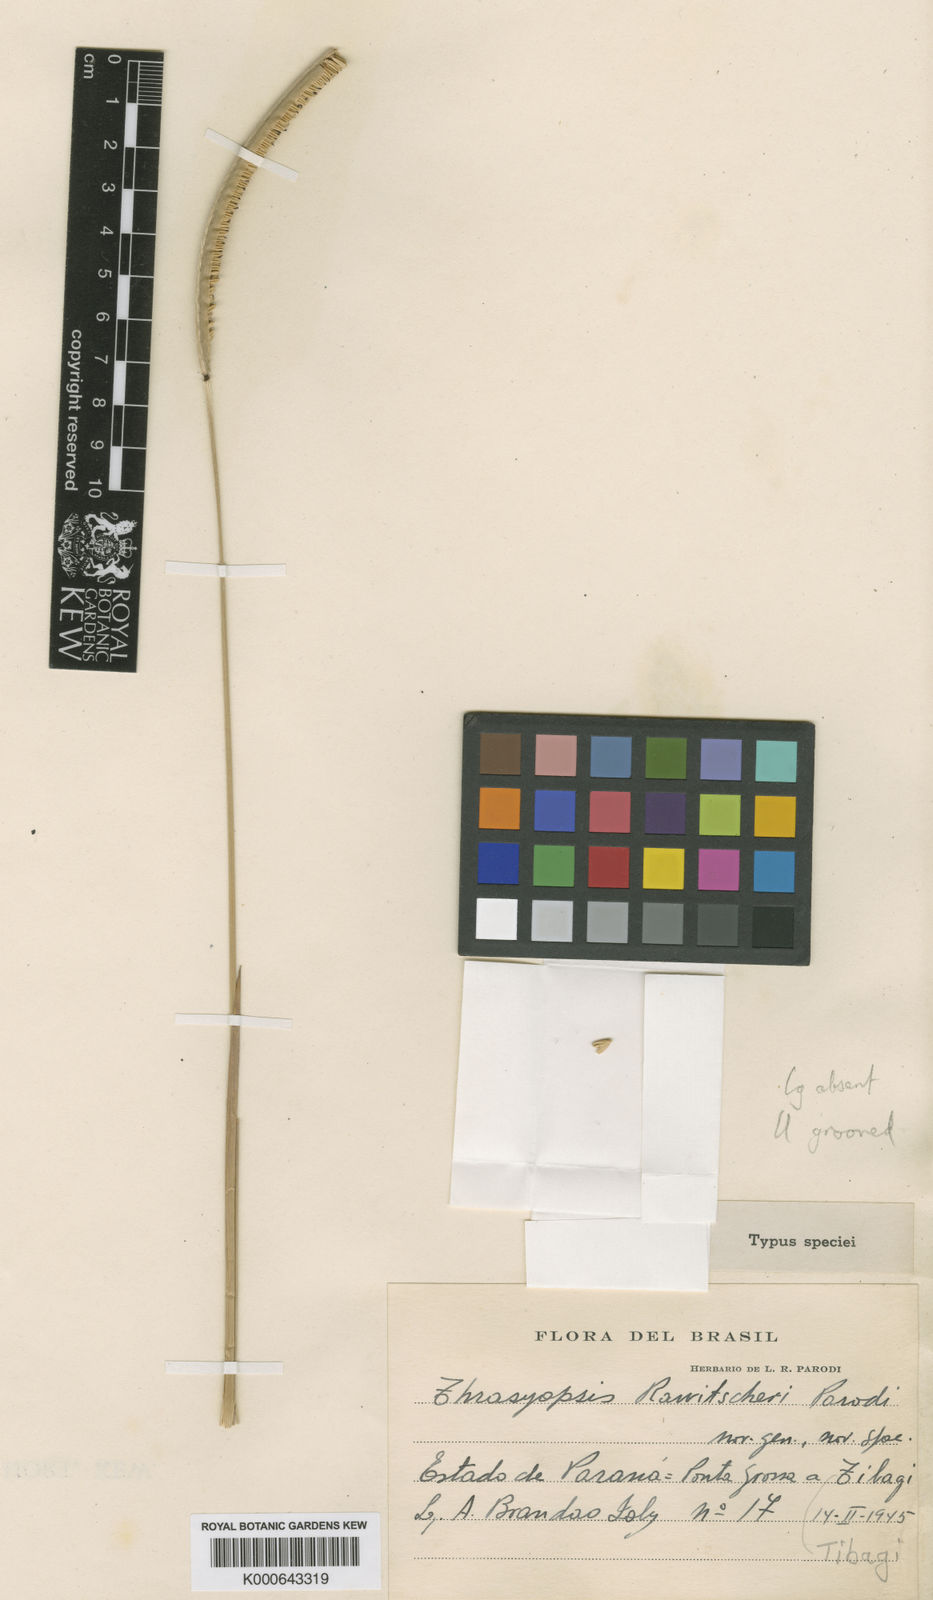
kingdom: Plantae
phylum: Tracheophyta
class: Liliopsida
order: Poales
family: Poaceae
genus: Paspalum
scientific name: Paspalum rawitscheri
